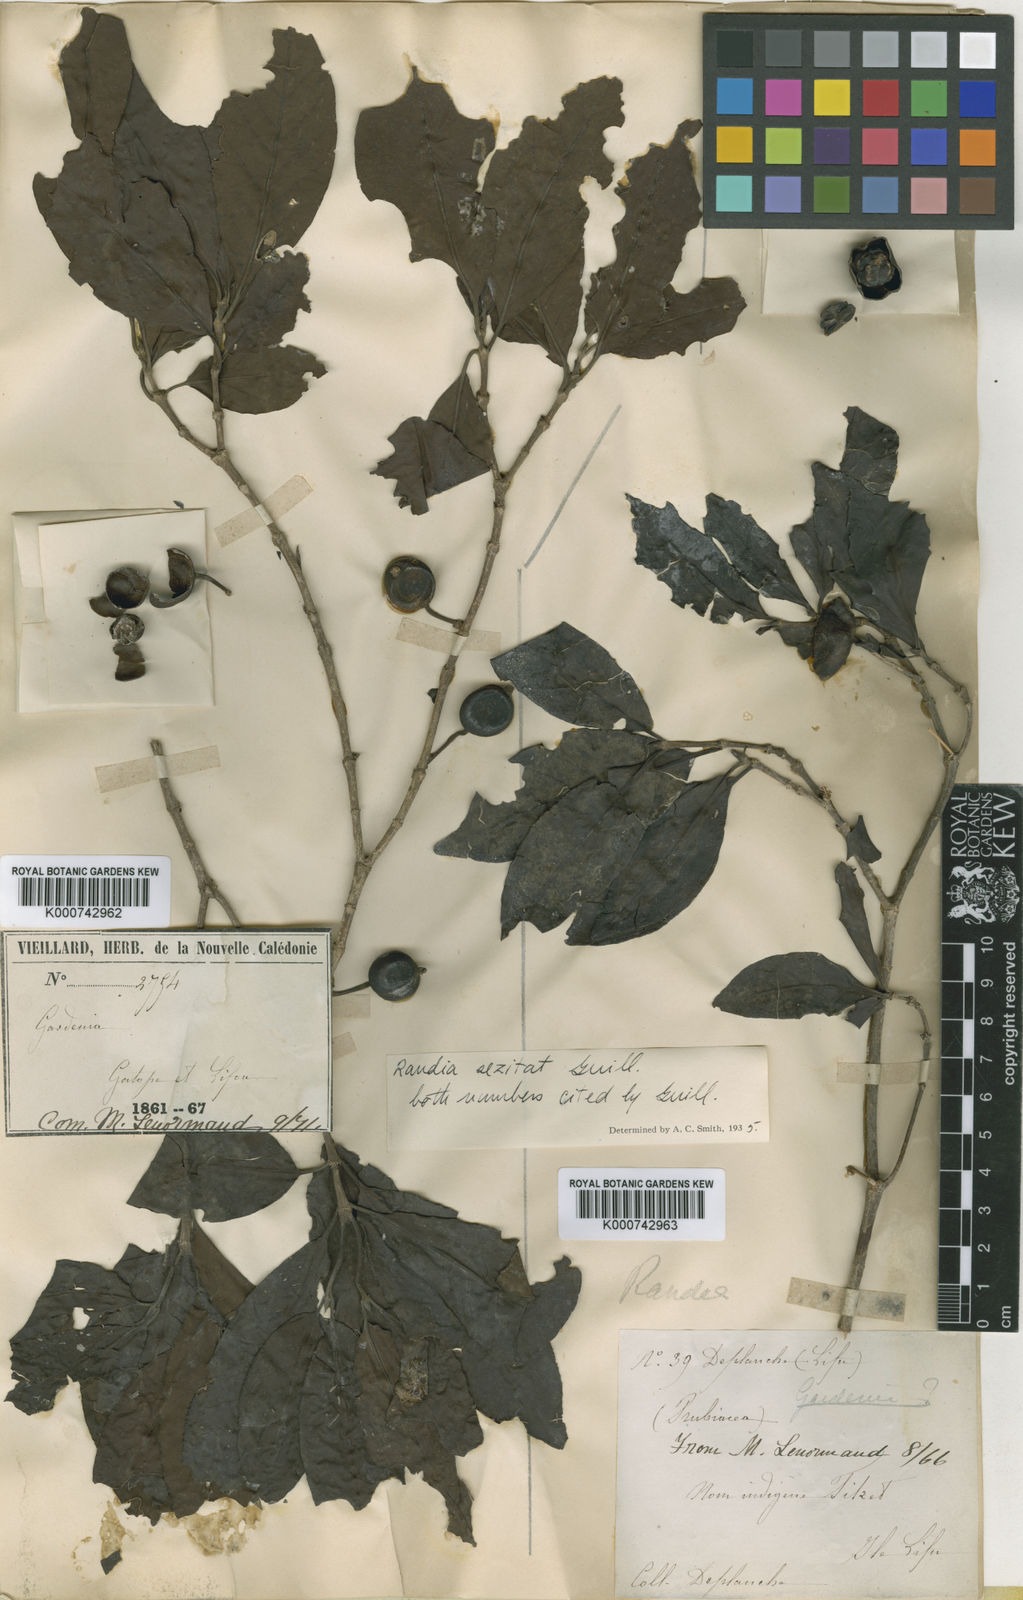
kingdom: Plantae
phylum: Tracheophyta
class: Magnoliopsida
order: Gentianales
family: Rubiaceae
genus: Atractocarpus
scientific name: Atractocarpus sezitat
